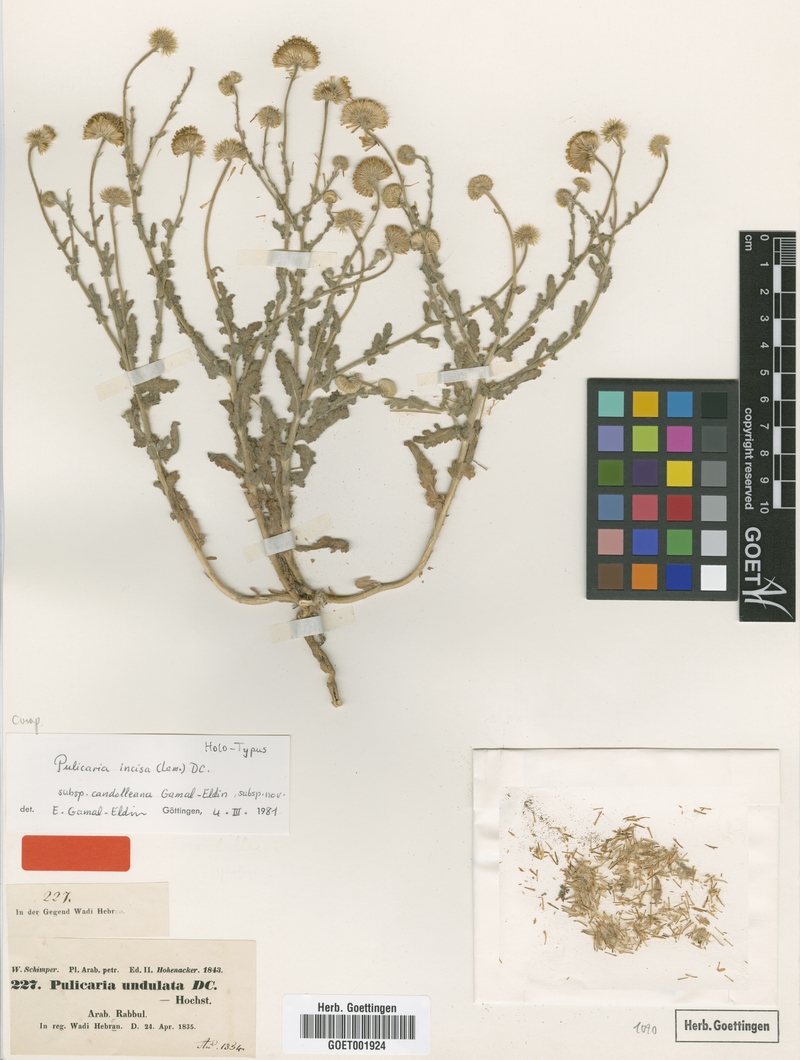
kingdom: Plantae
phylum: Tracheophyta
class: Magnoliopsida
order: Asterales
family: Asteraceae
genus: Pulicaria
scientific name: Pulicaria incisa
